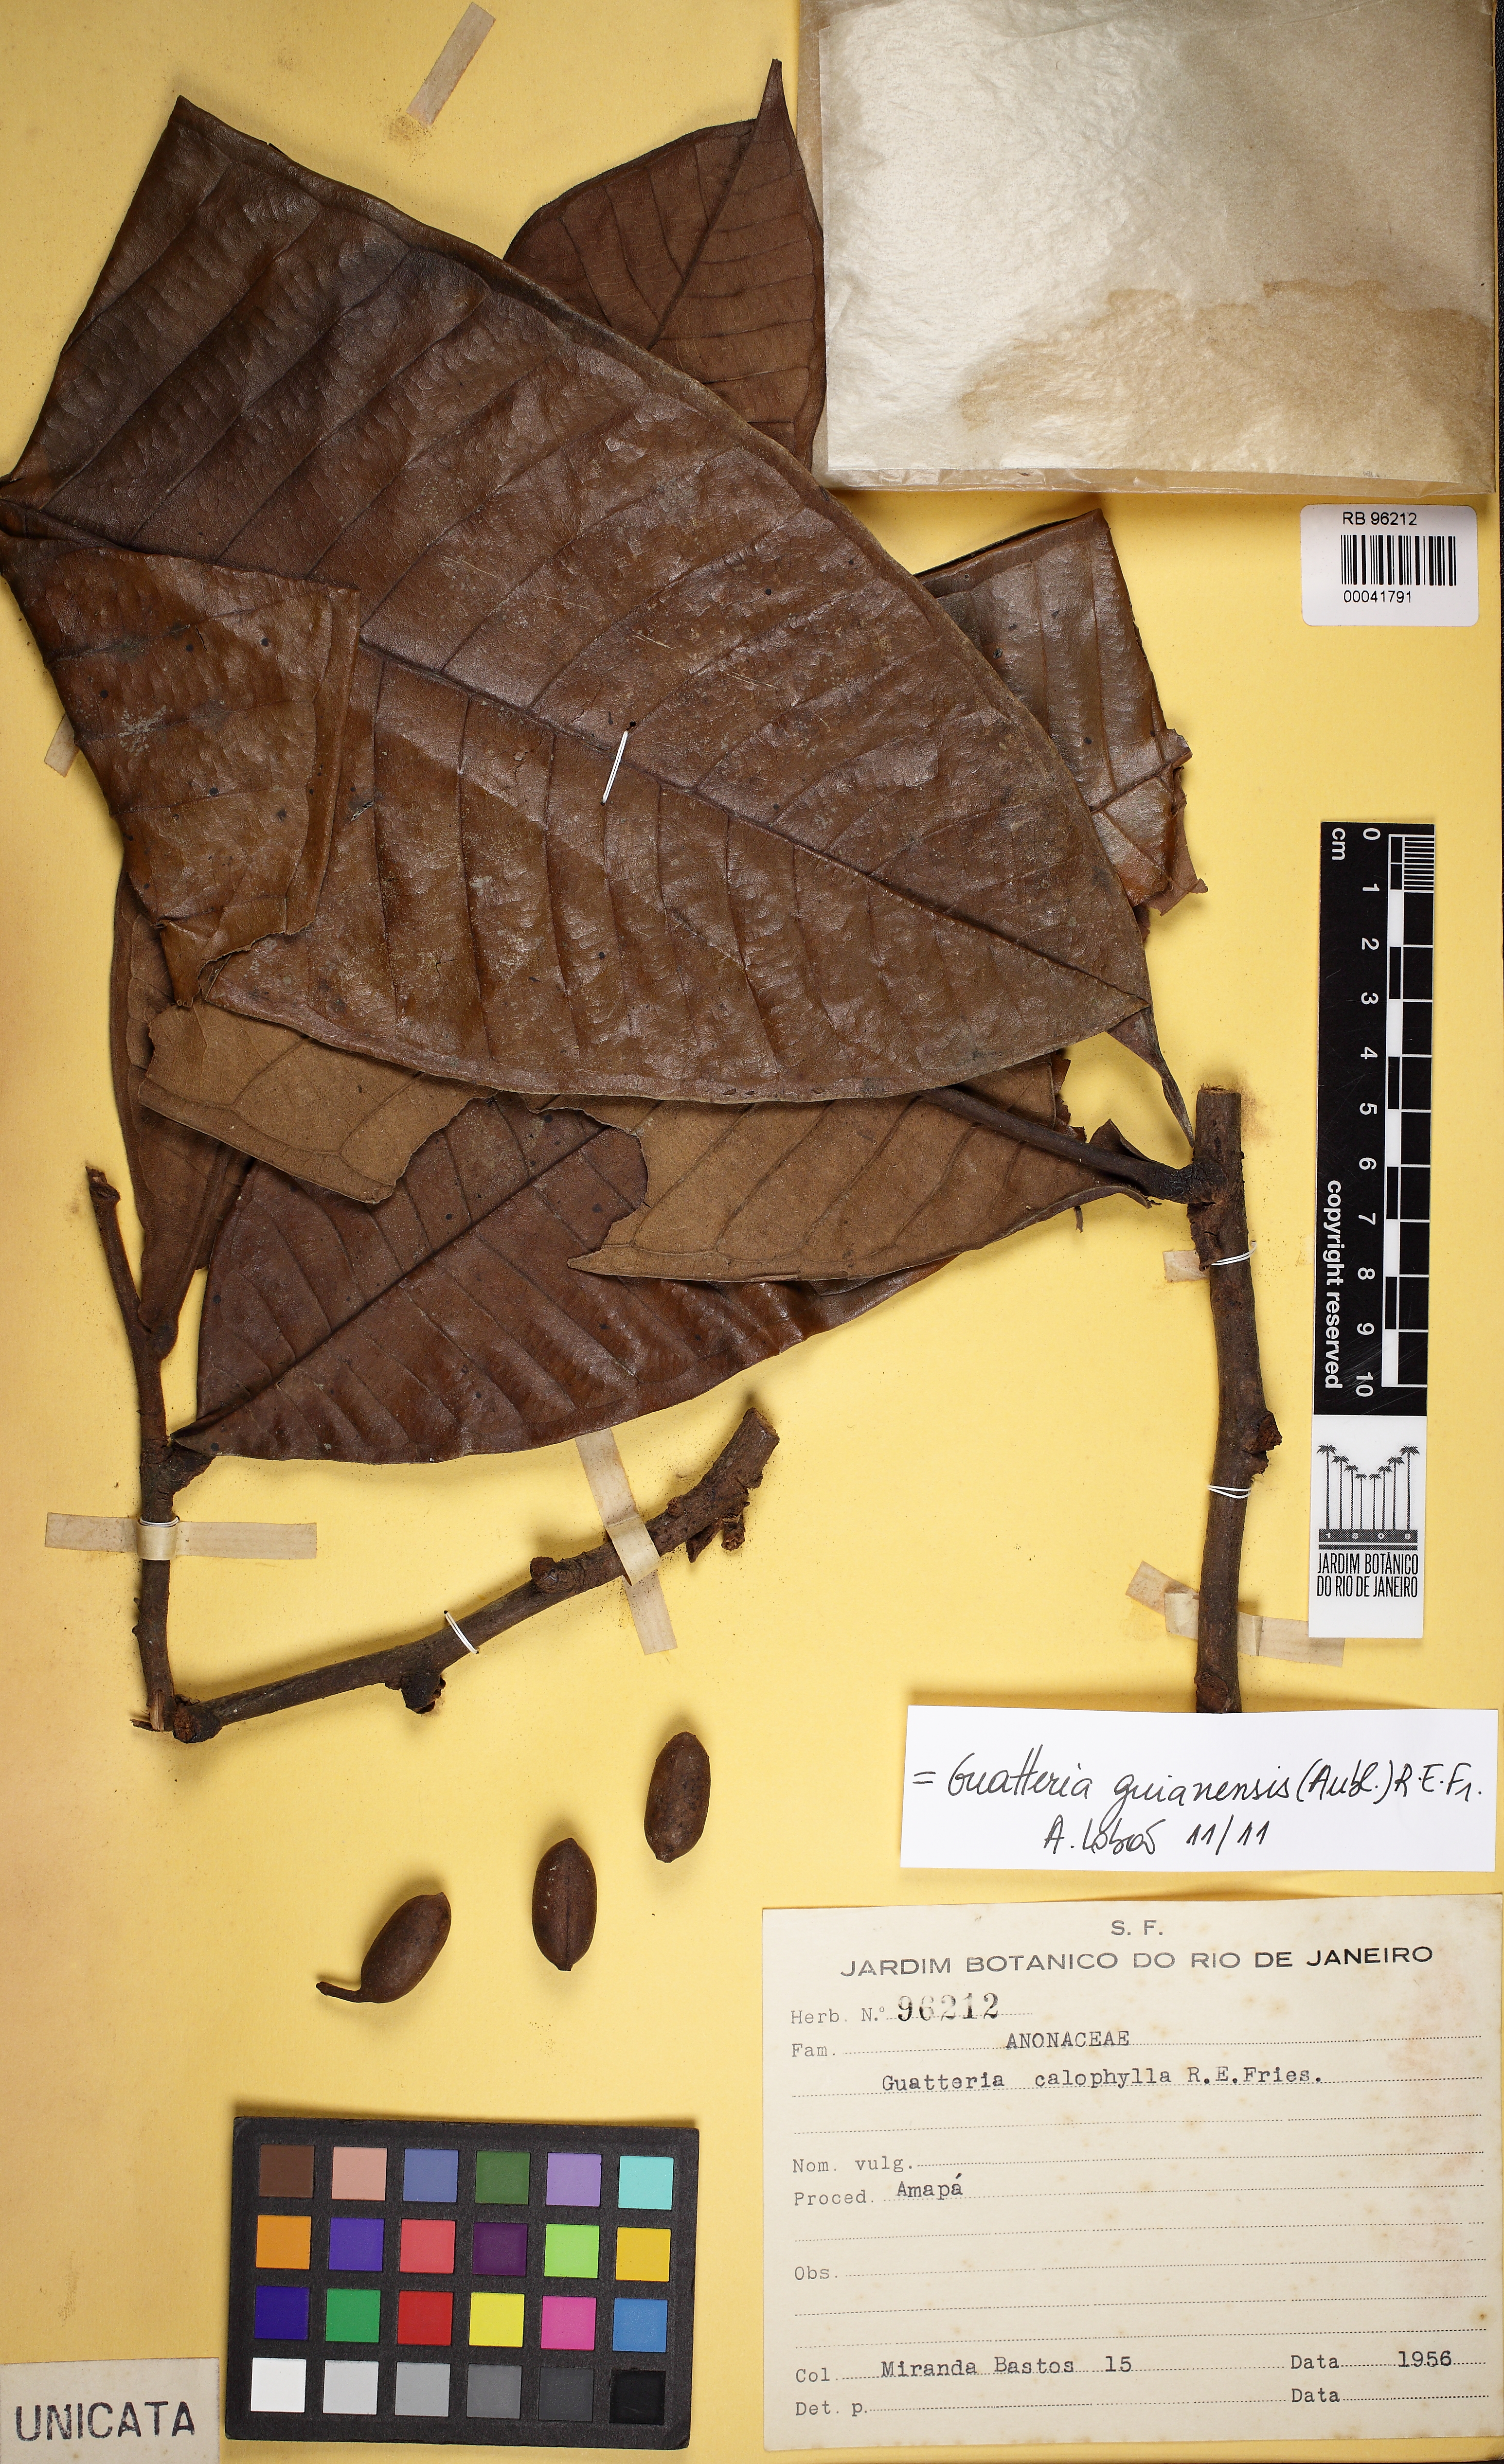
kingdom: Plantae
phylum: Tracheophyta
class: Magnoliopsida
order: Magnoliales
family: Annonaceae
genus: Guatteria
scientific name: Guatteria guianensis
